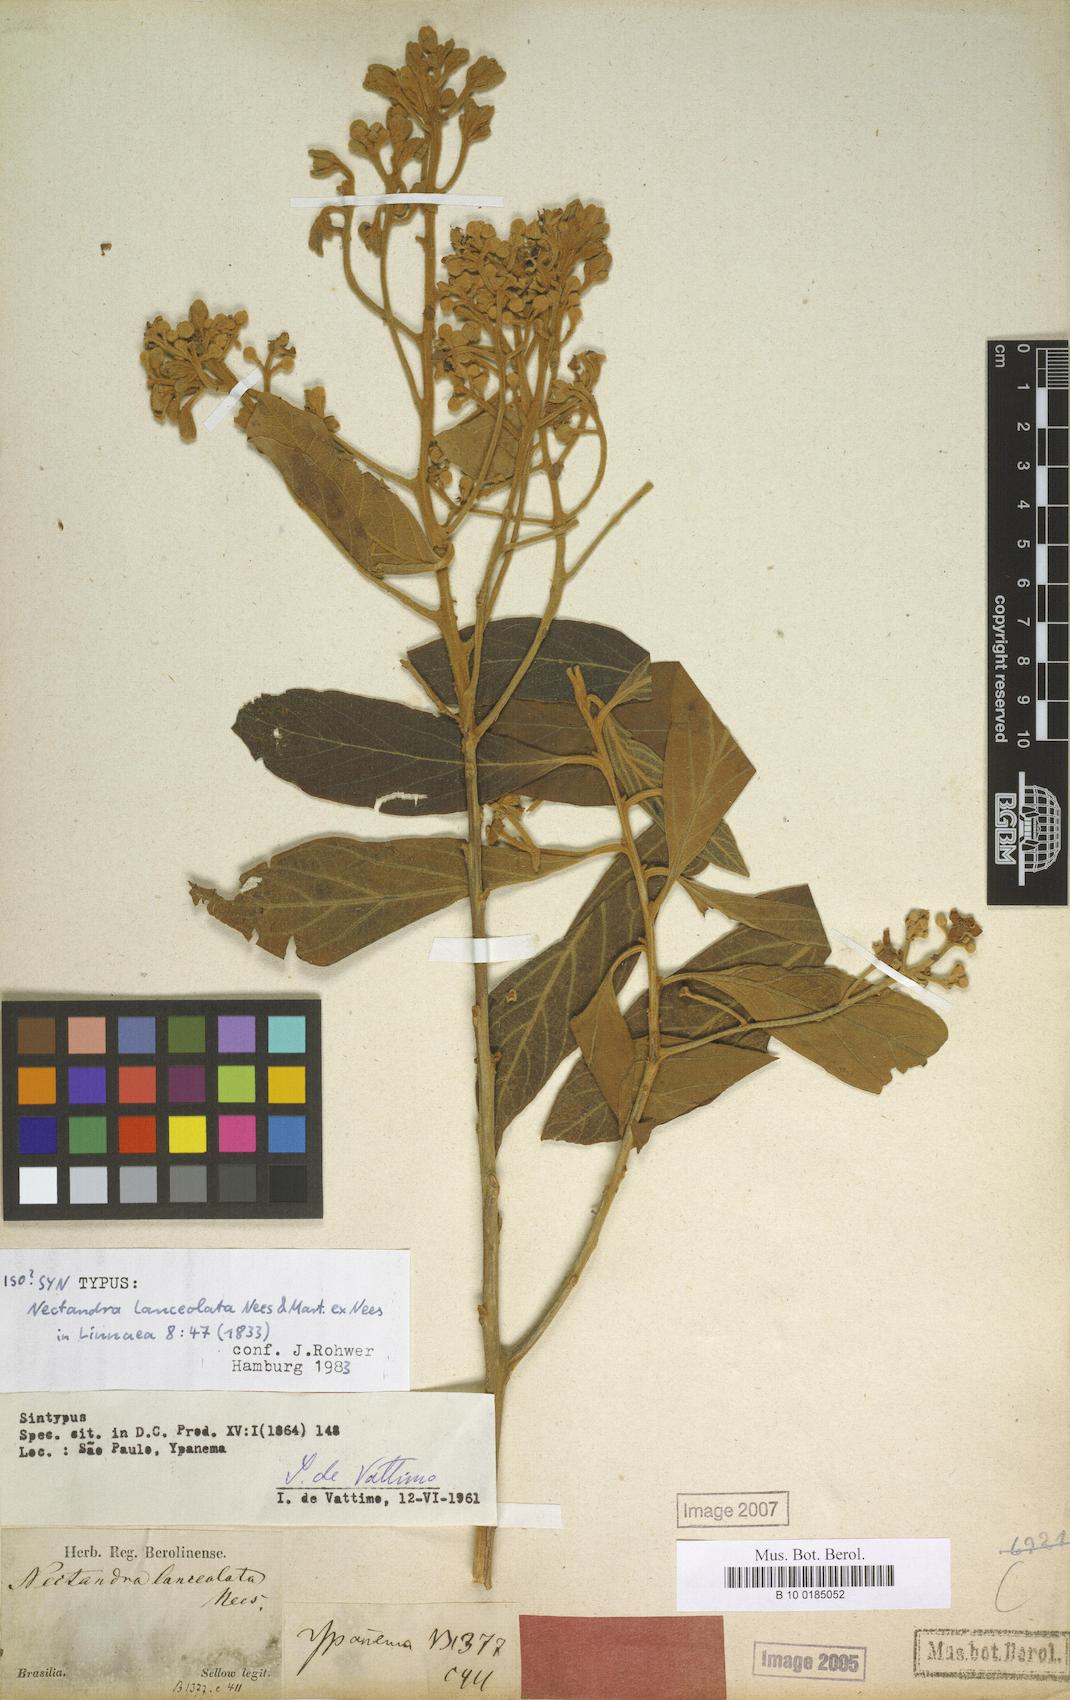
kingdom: Plantae
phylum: Tracheophyta
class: Magnoliopsida
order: Laurales
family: Lauraceae
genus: Nectandra
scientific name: Nectandra lanceolata
